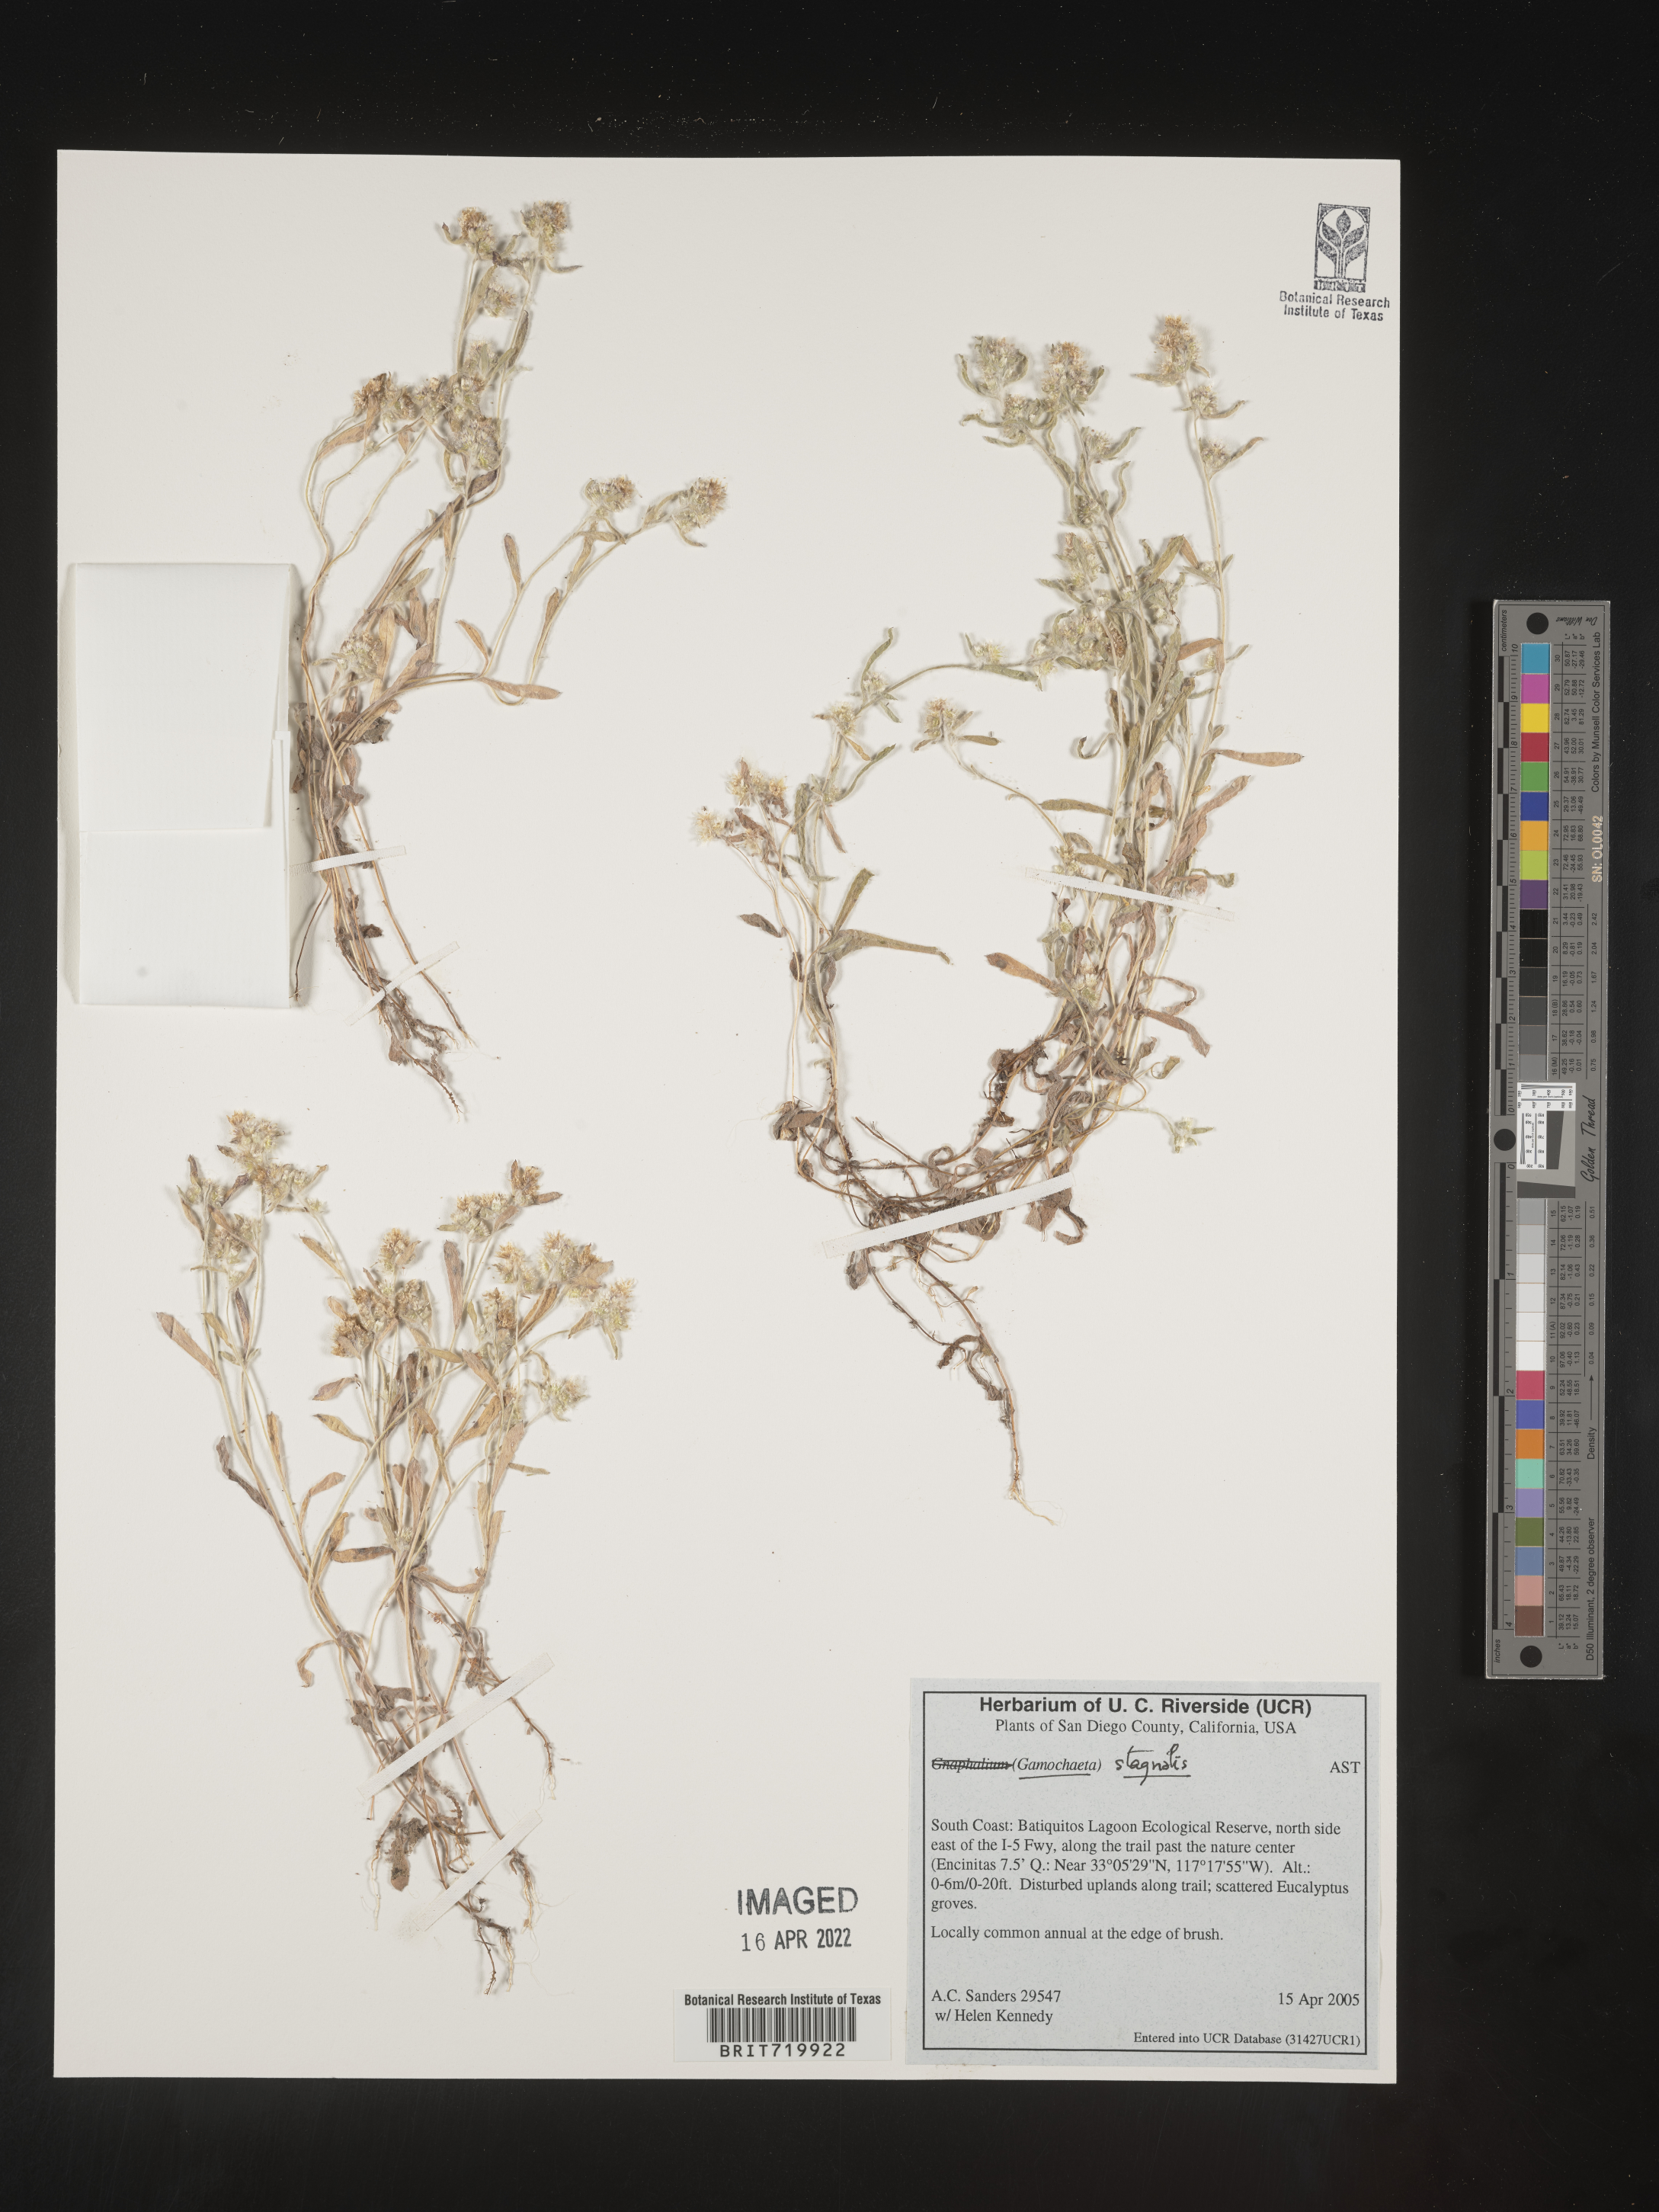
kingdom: Plantae
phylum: Tracheophyta
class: Magnoliopsida
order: Asterales
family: Asteraceae
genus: Gamochaeta
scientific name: Gamochaeta stagnalis
